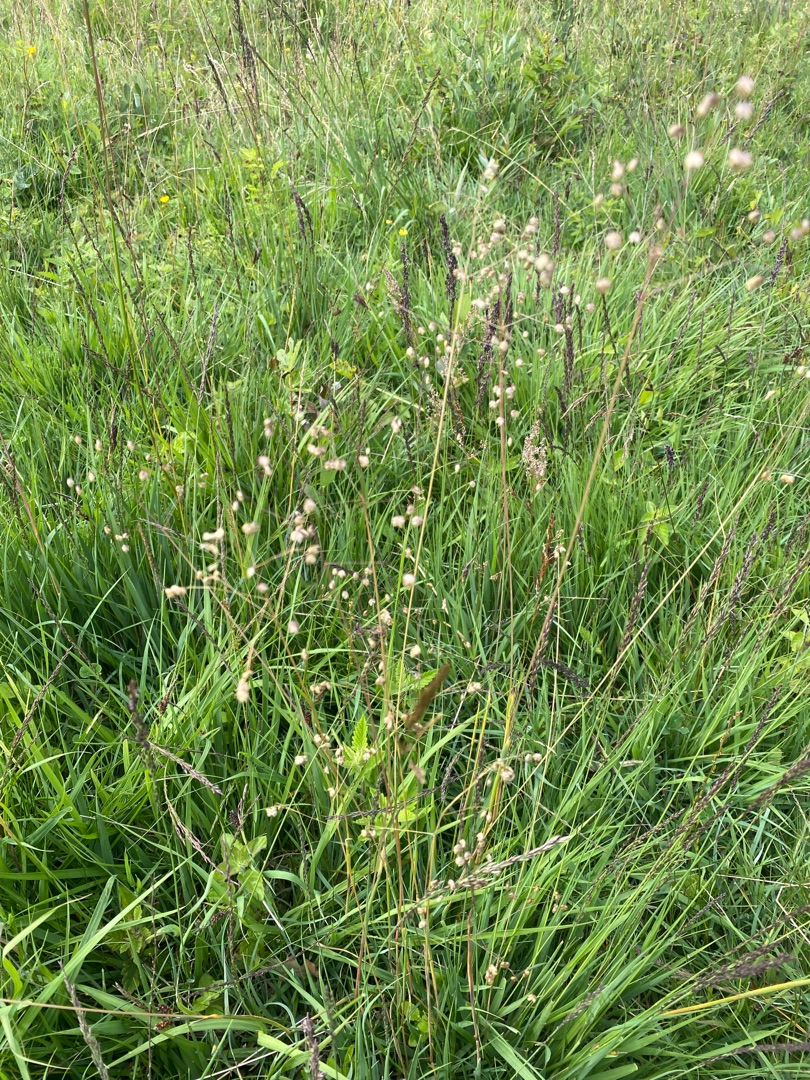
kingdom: Plantae
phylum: Tracheophyta
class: Liliopsida
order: Poales
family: Poaceae
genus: Briza
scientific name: Briza media
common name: Hjertegræs
